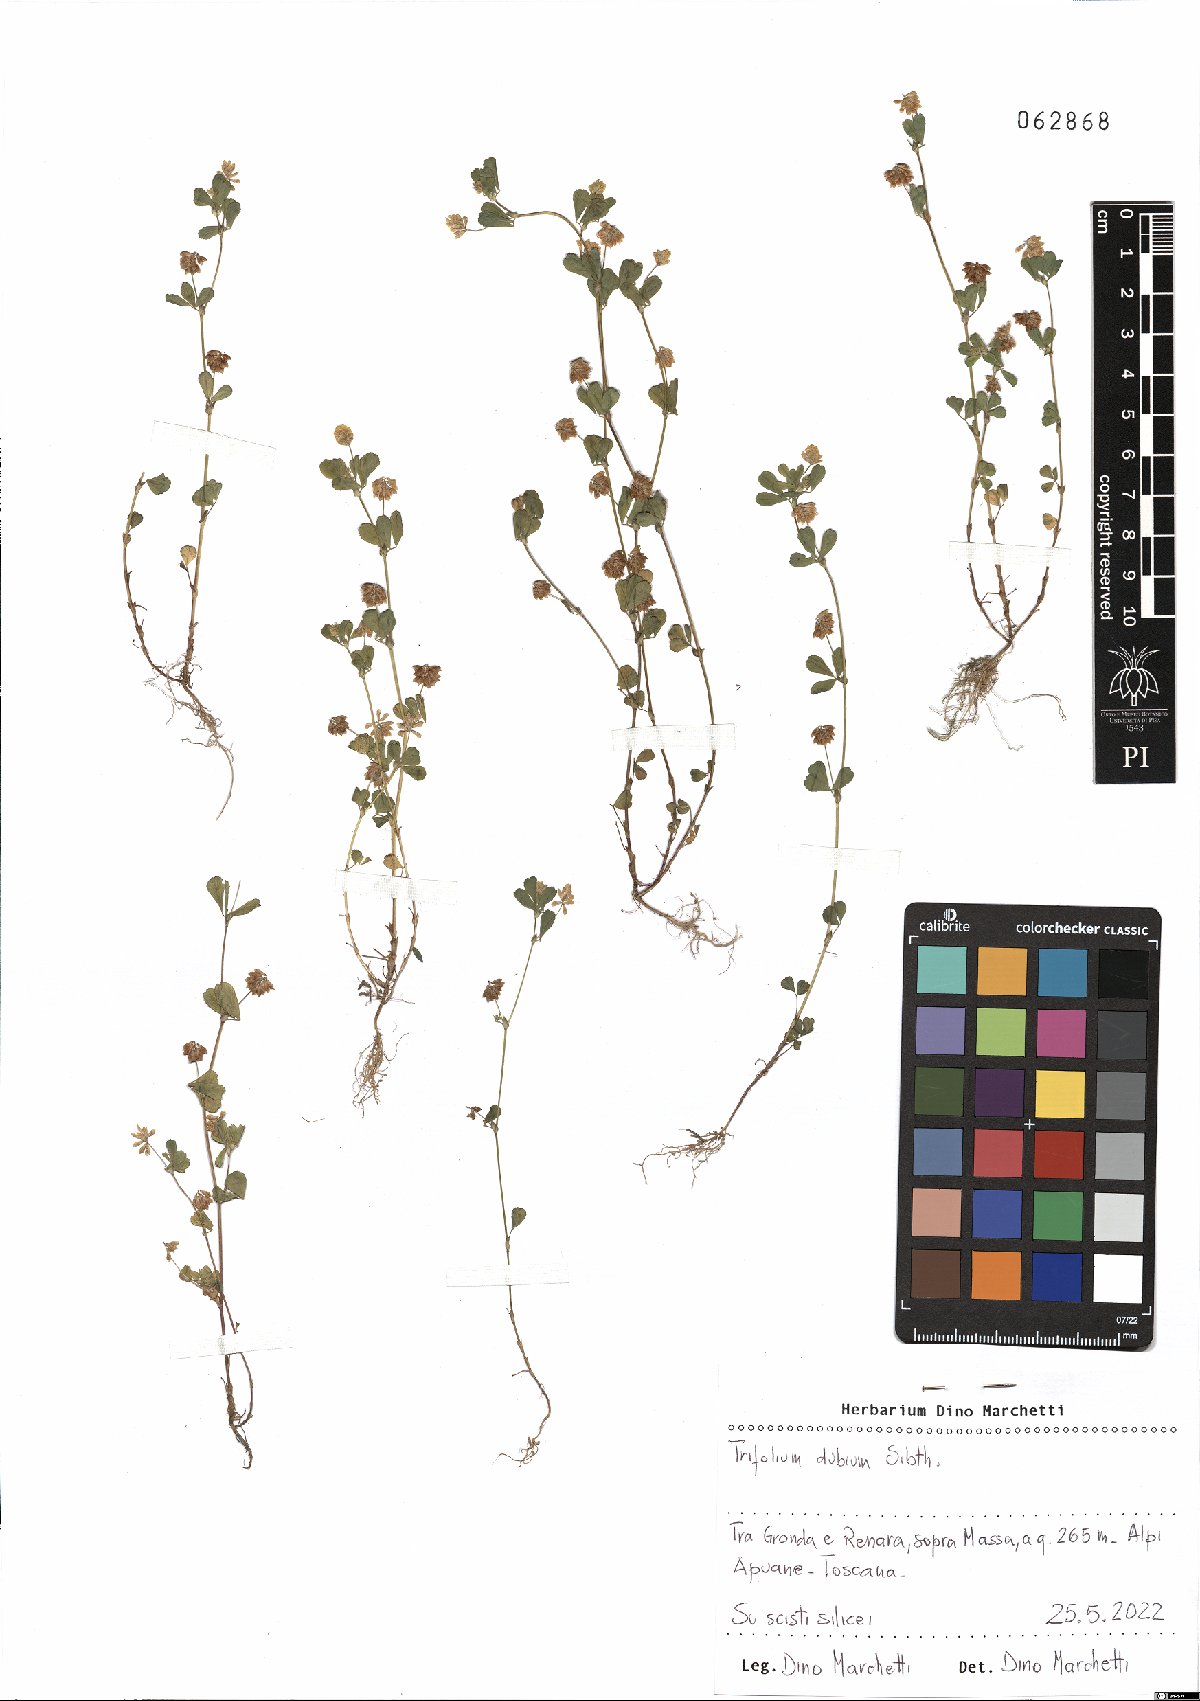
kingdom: Plantae
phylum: Tracheophyta
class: Magnoliopsida
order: Fabales
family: Fabaceae
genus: Trifolium
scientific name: Trifolium dubium
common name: Suckling clover
